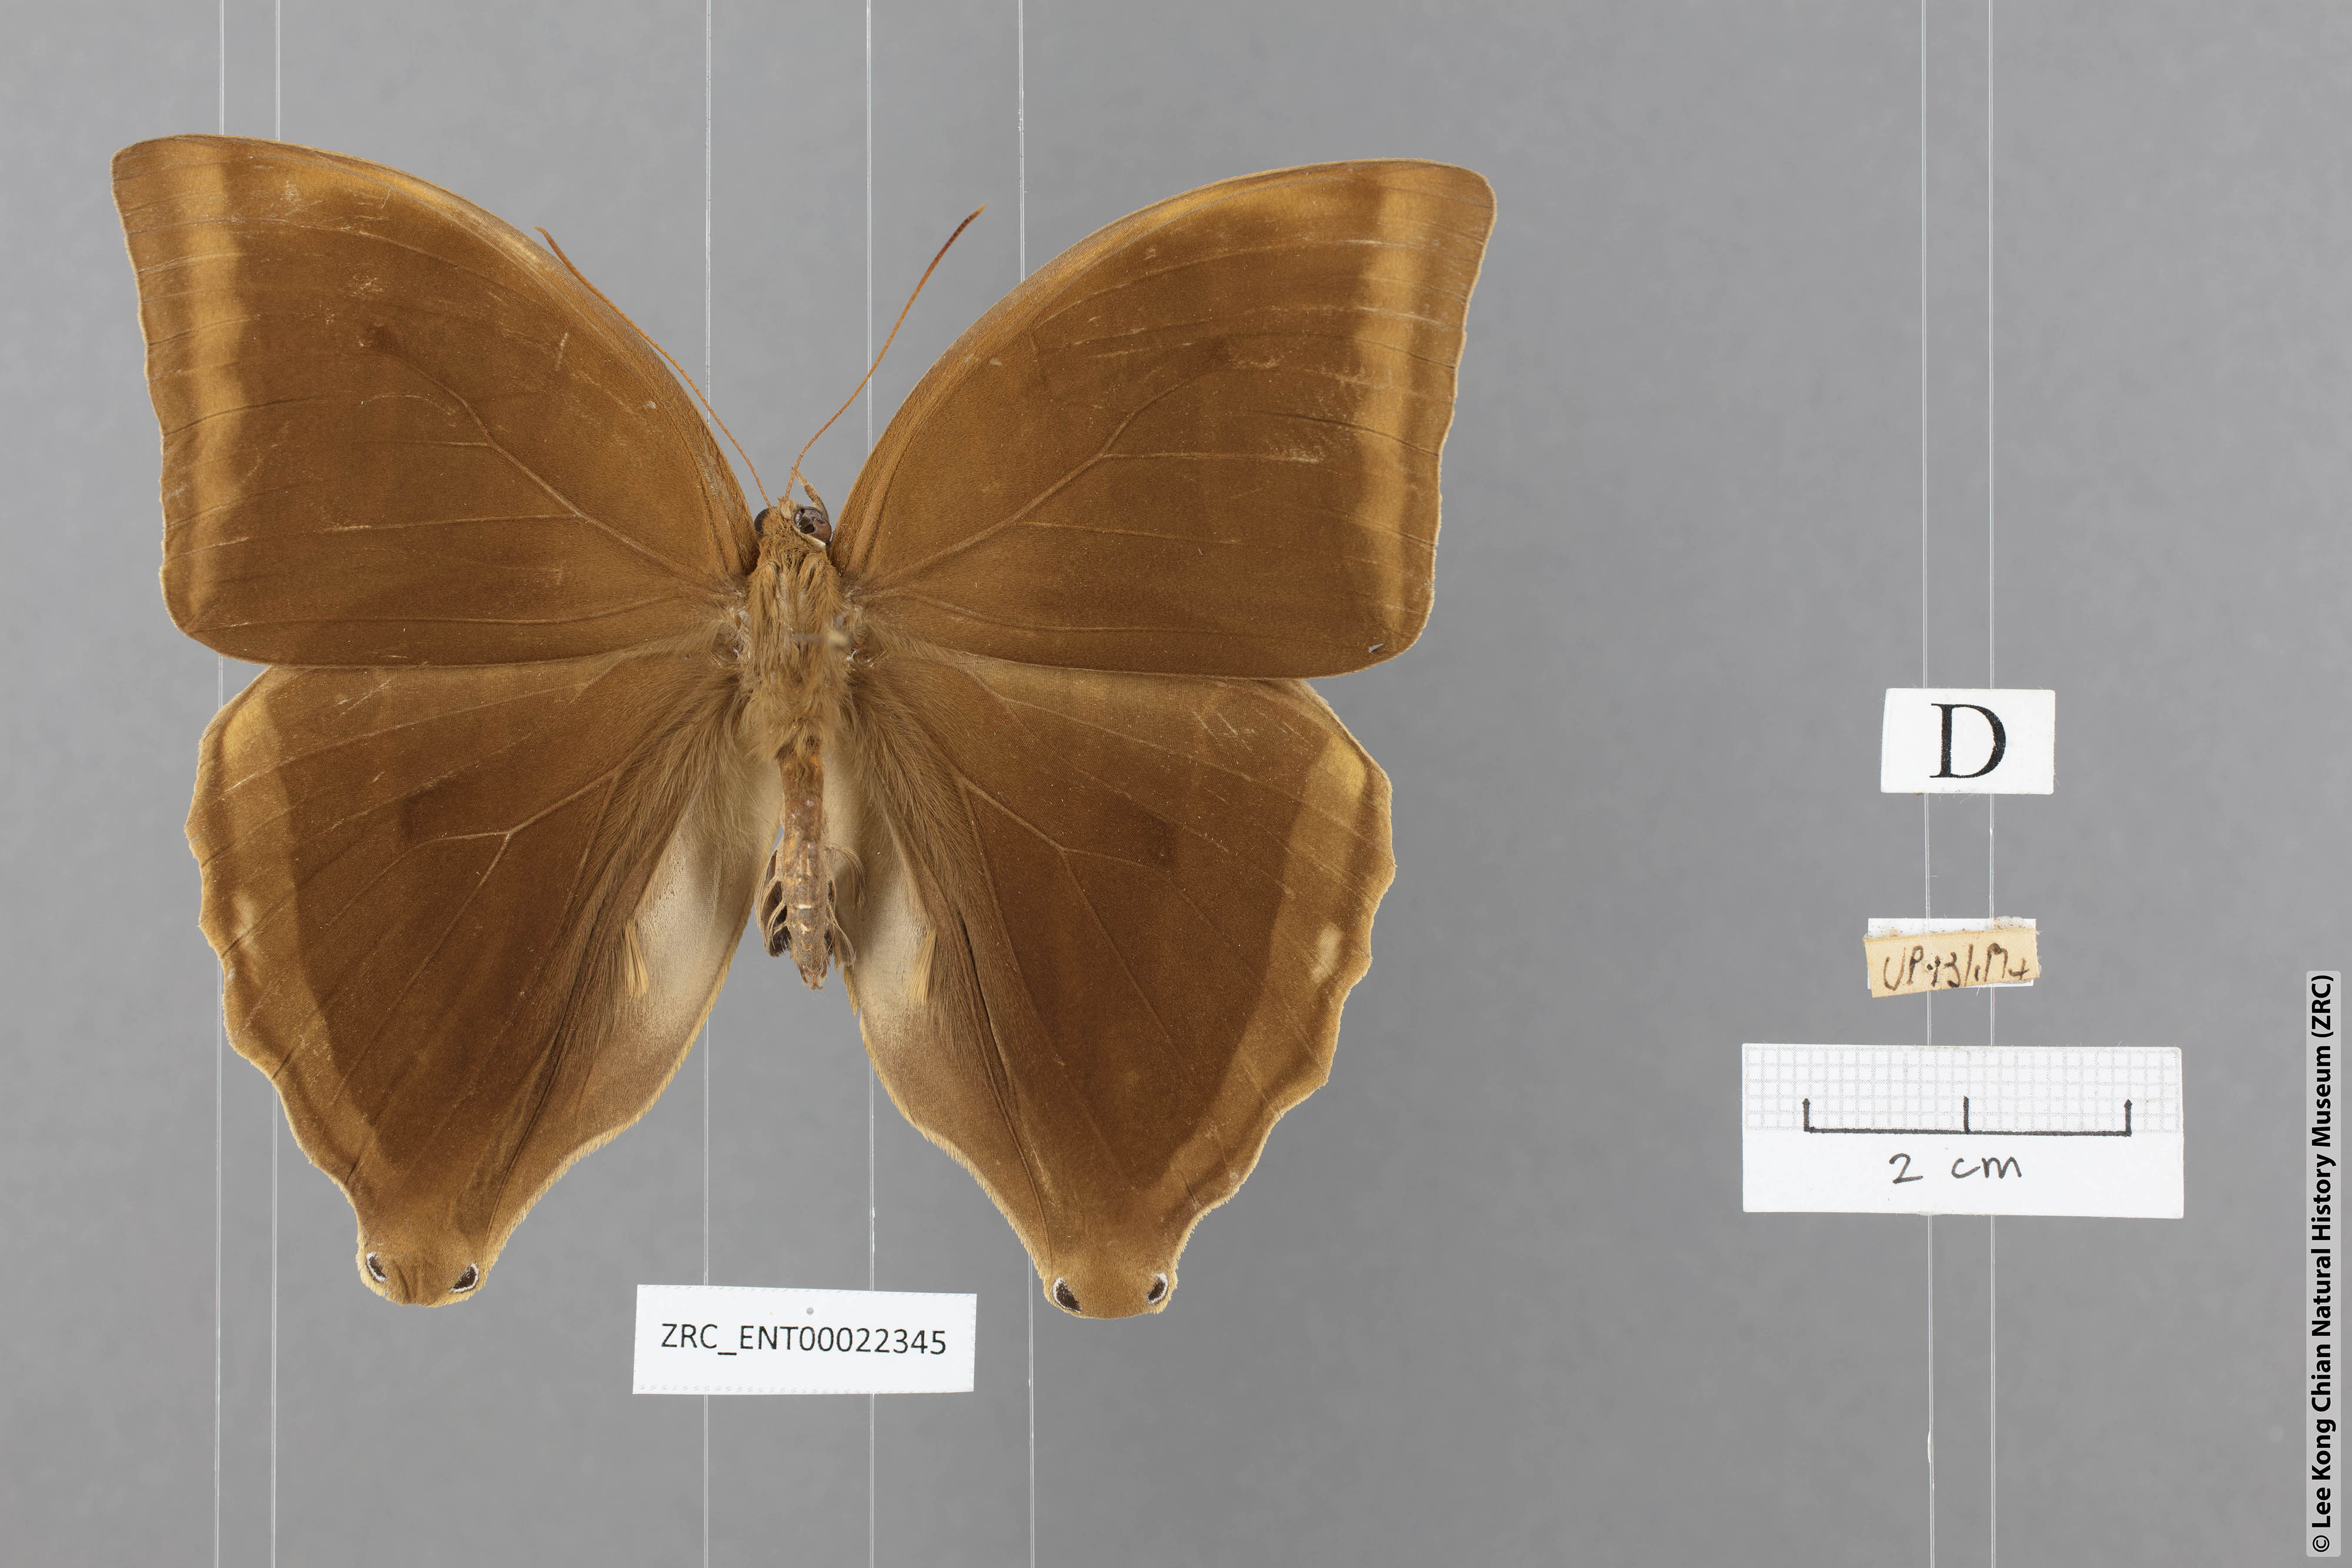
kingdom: Animalia
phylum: Arthropoda
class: Insecta
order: Lepidoptera
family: Nymphalidae
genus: Amathusia
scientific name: Amathusia phidippus
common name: Palm king
